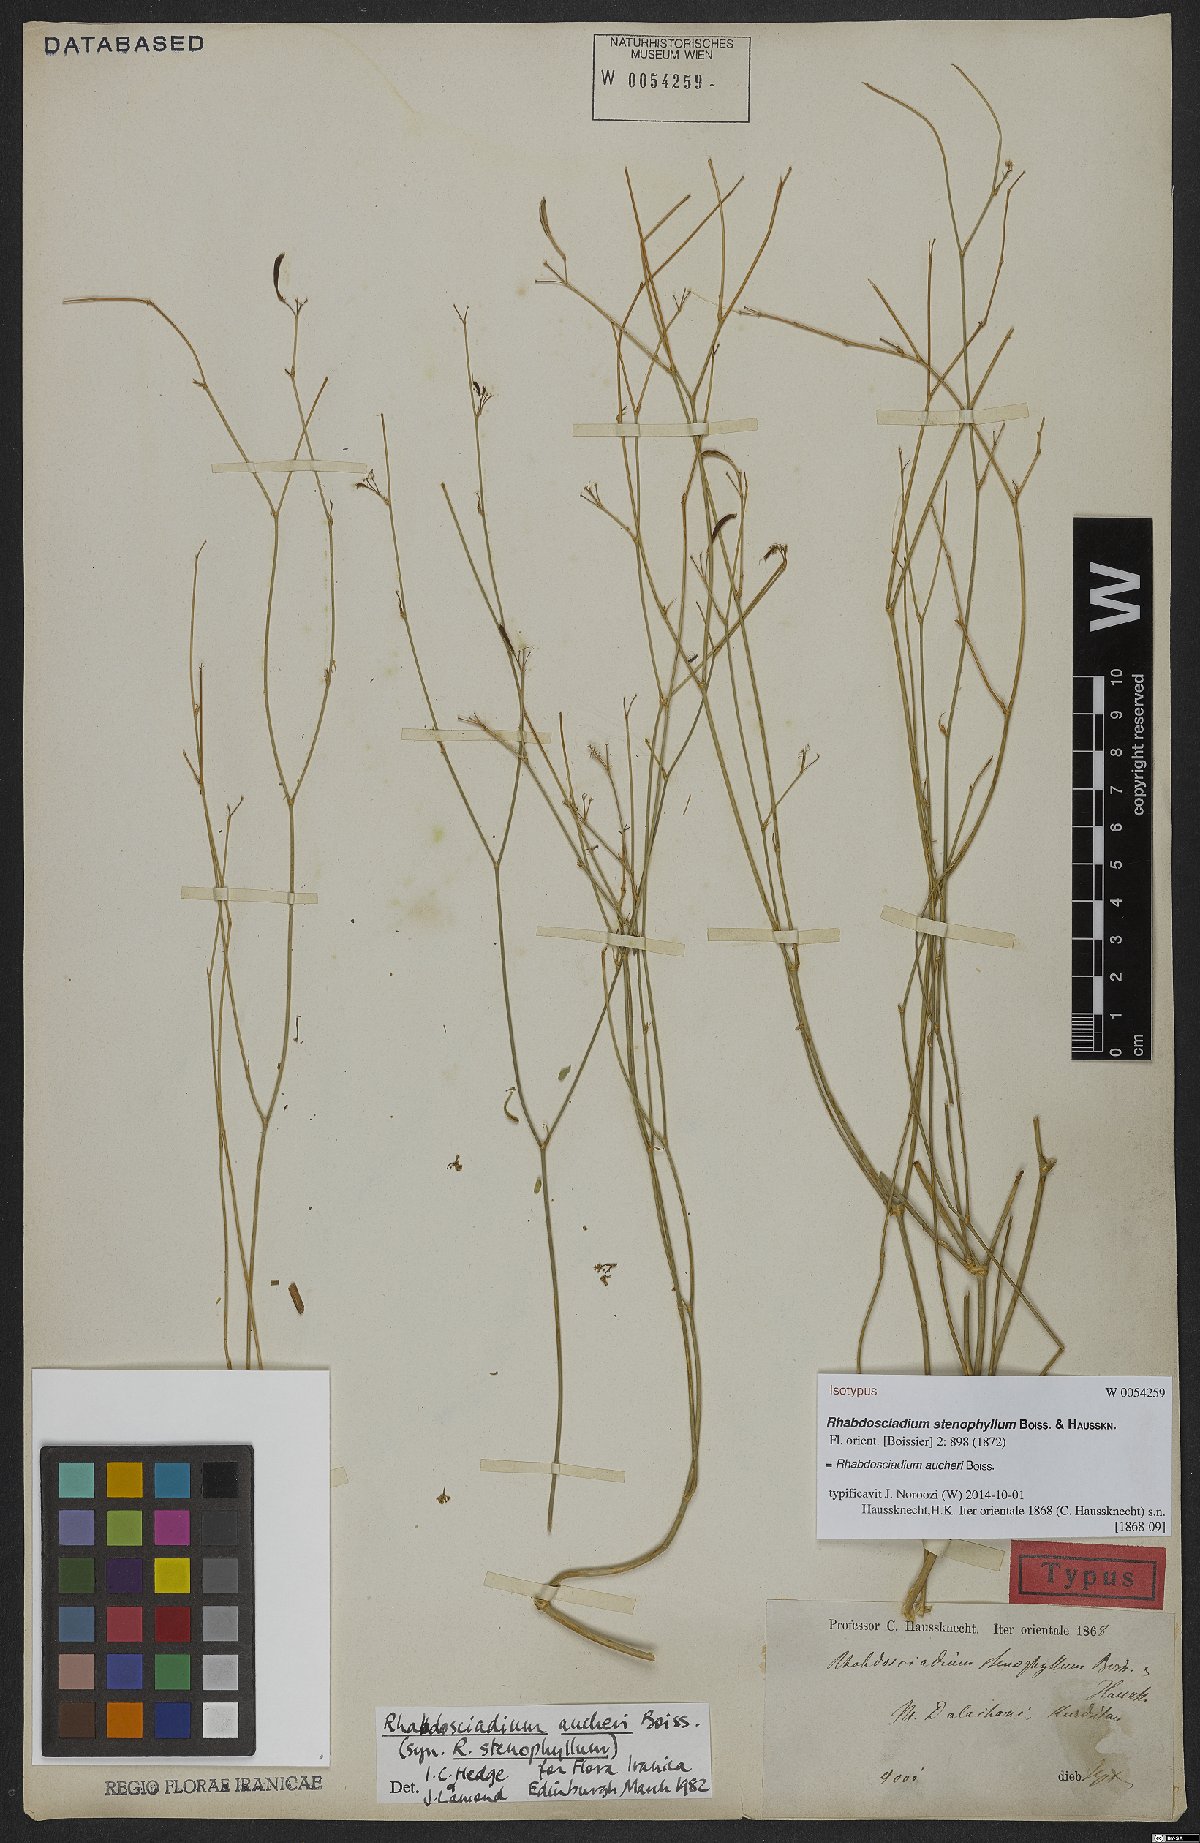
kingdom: Plantae
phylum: Tracheophyta
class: Magnoliopsida
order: Apiales
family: Apiaceae
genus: Rhabdosciadium
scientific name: Rhabdosciadium aucheri
